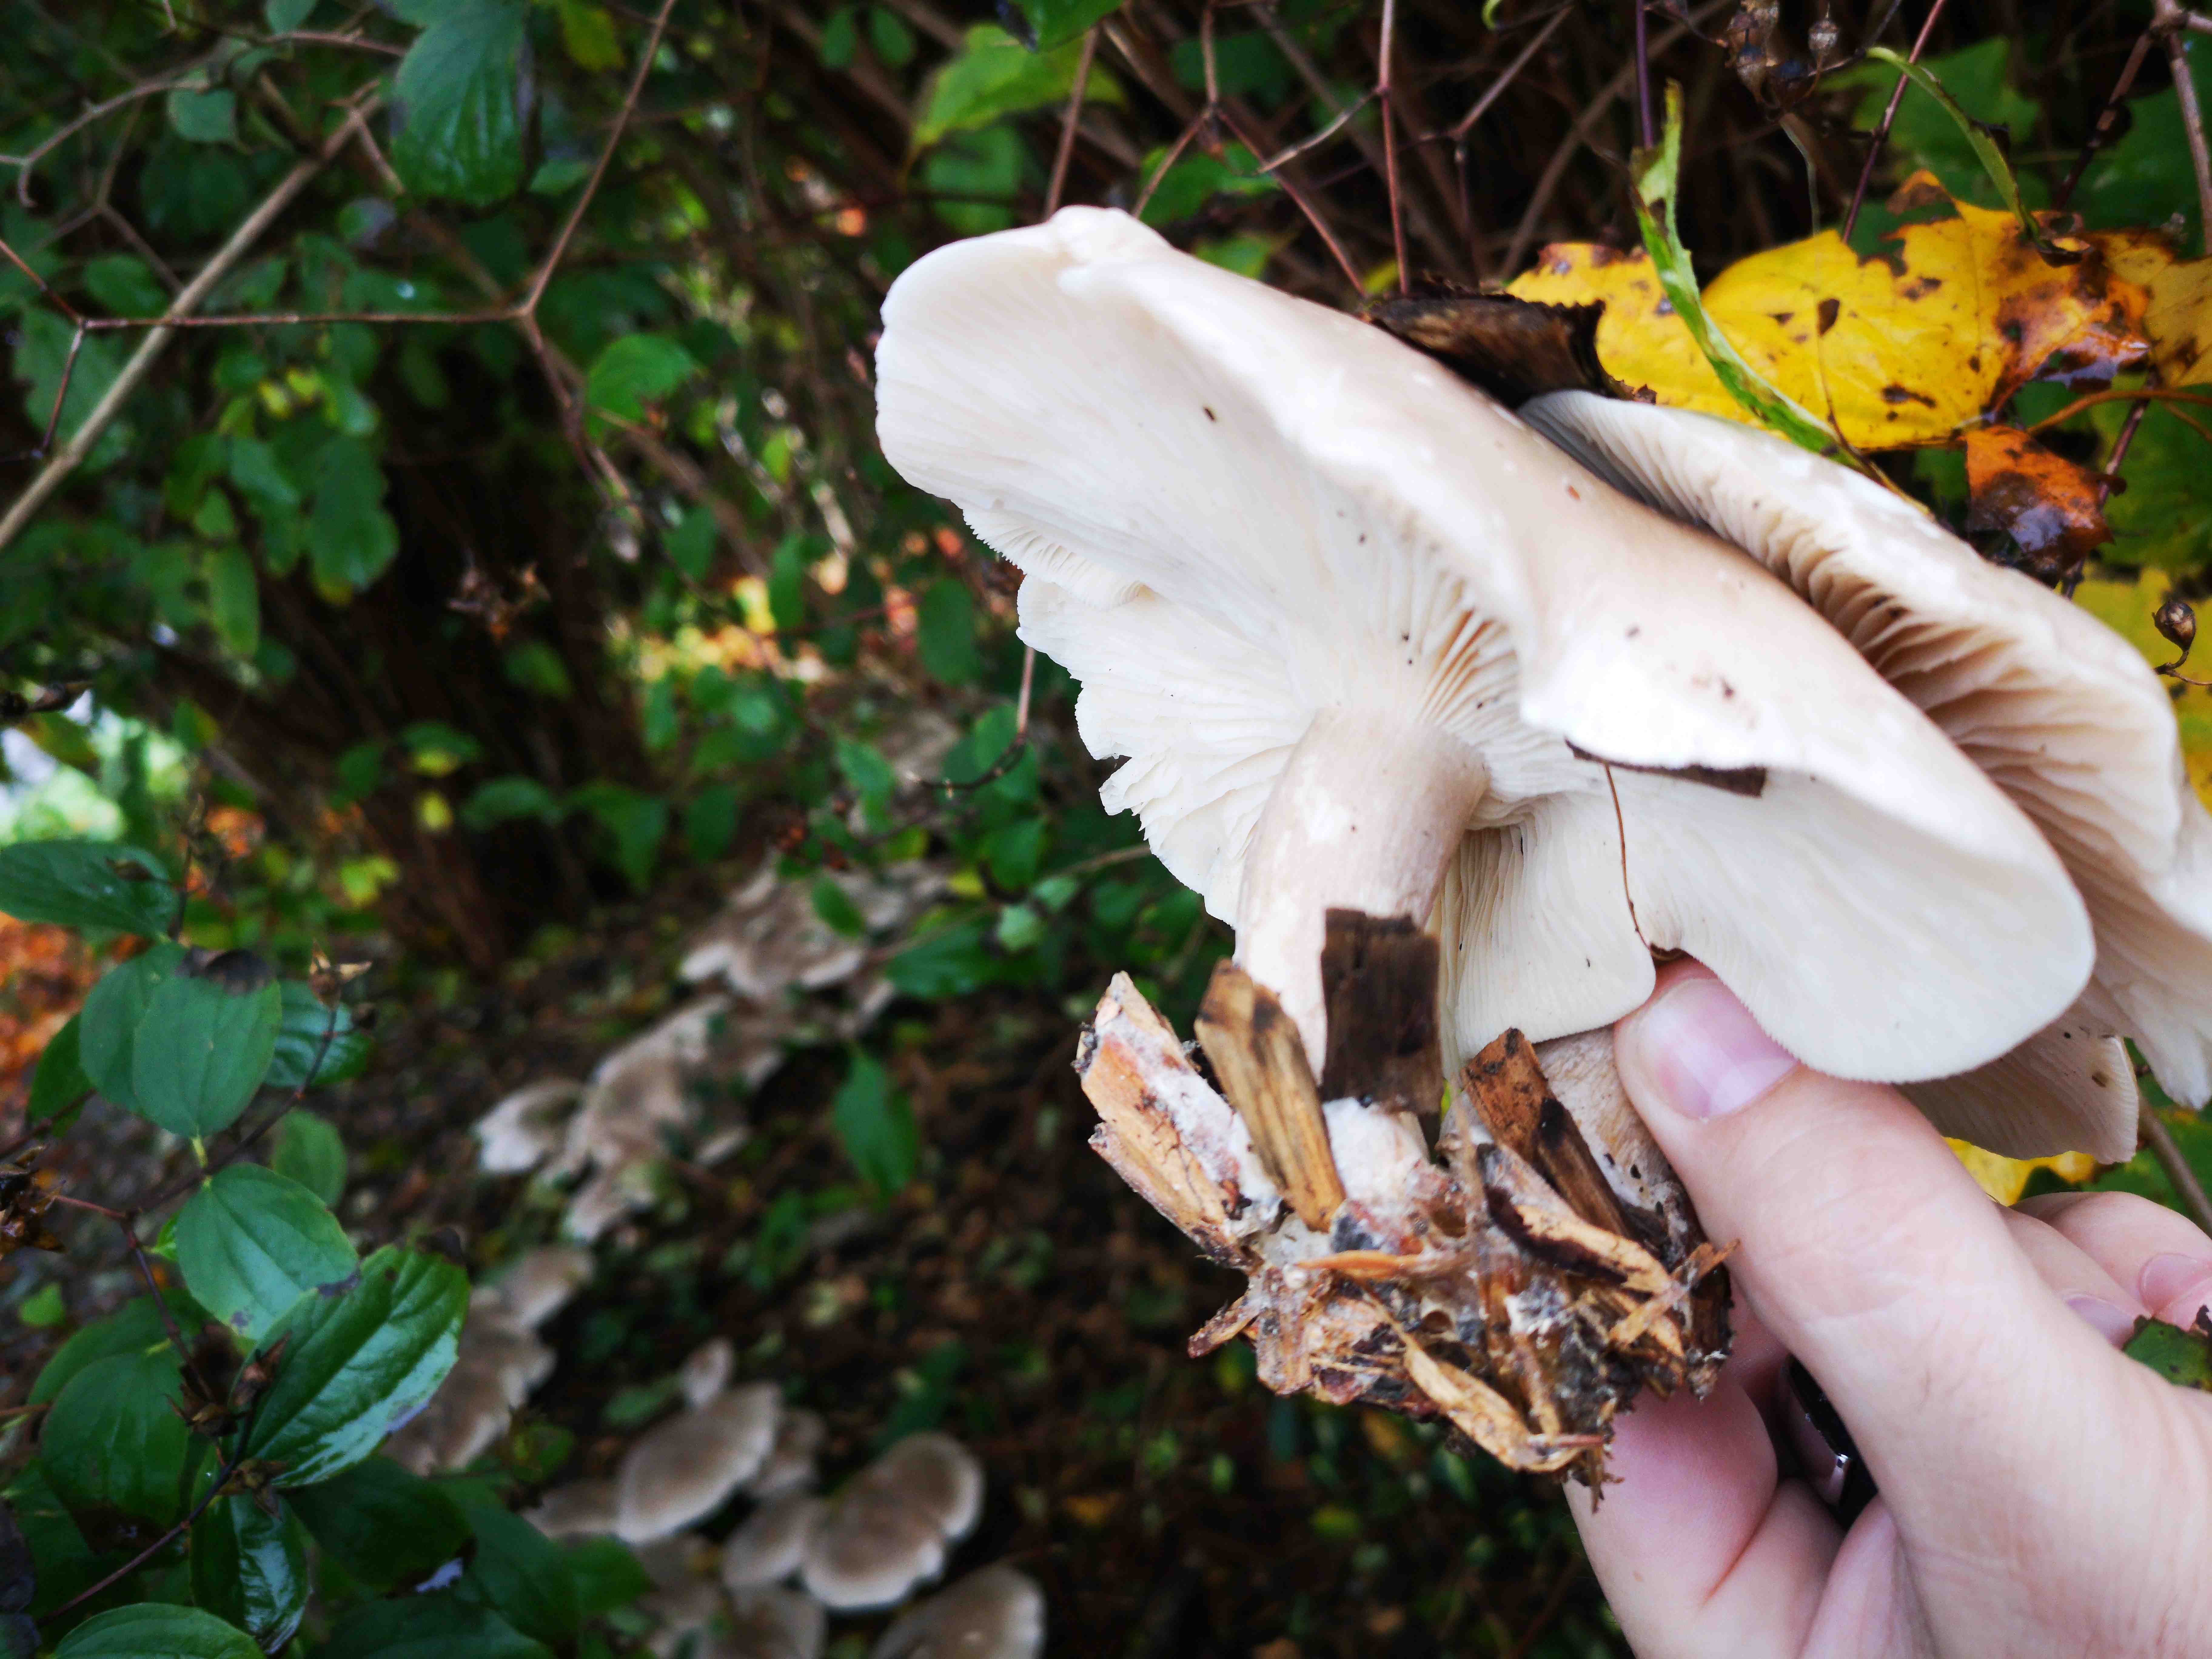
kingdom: Fungi
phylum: Basidiomycota
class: Agaricomycetes
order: Agaricales
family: Tricholomataceae
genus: Clitocybe
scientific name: Clitocybe nebularis
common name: tåge-tragthat
